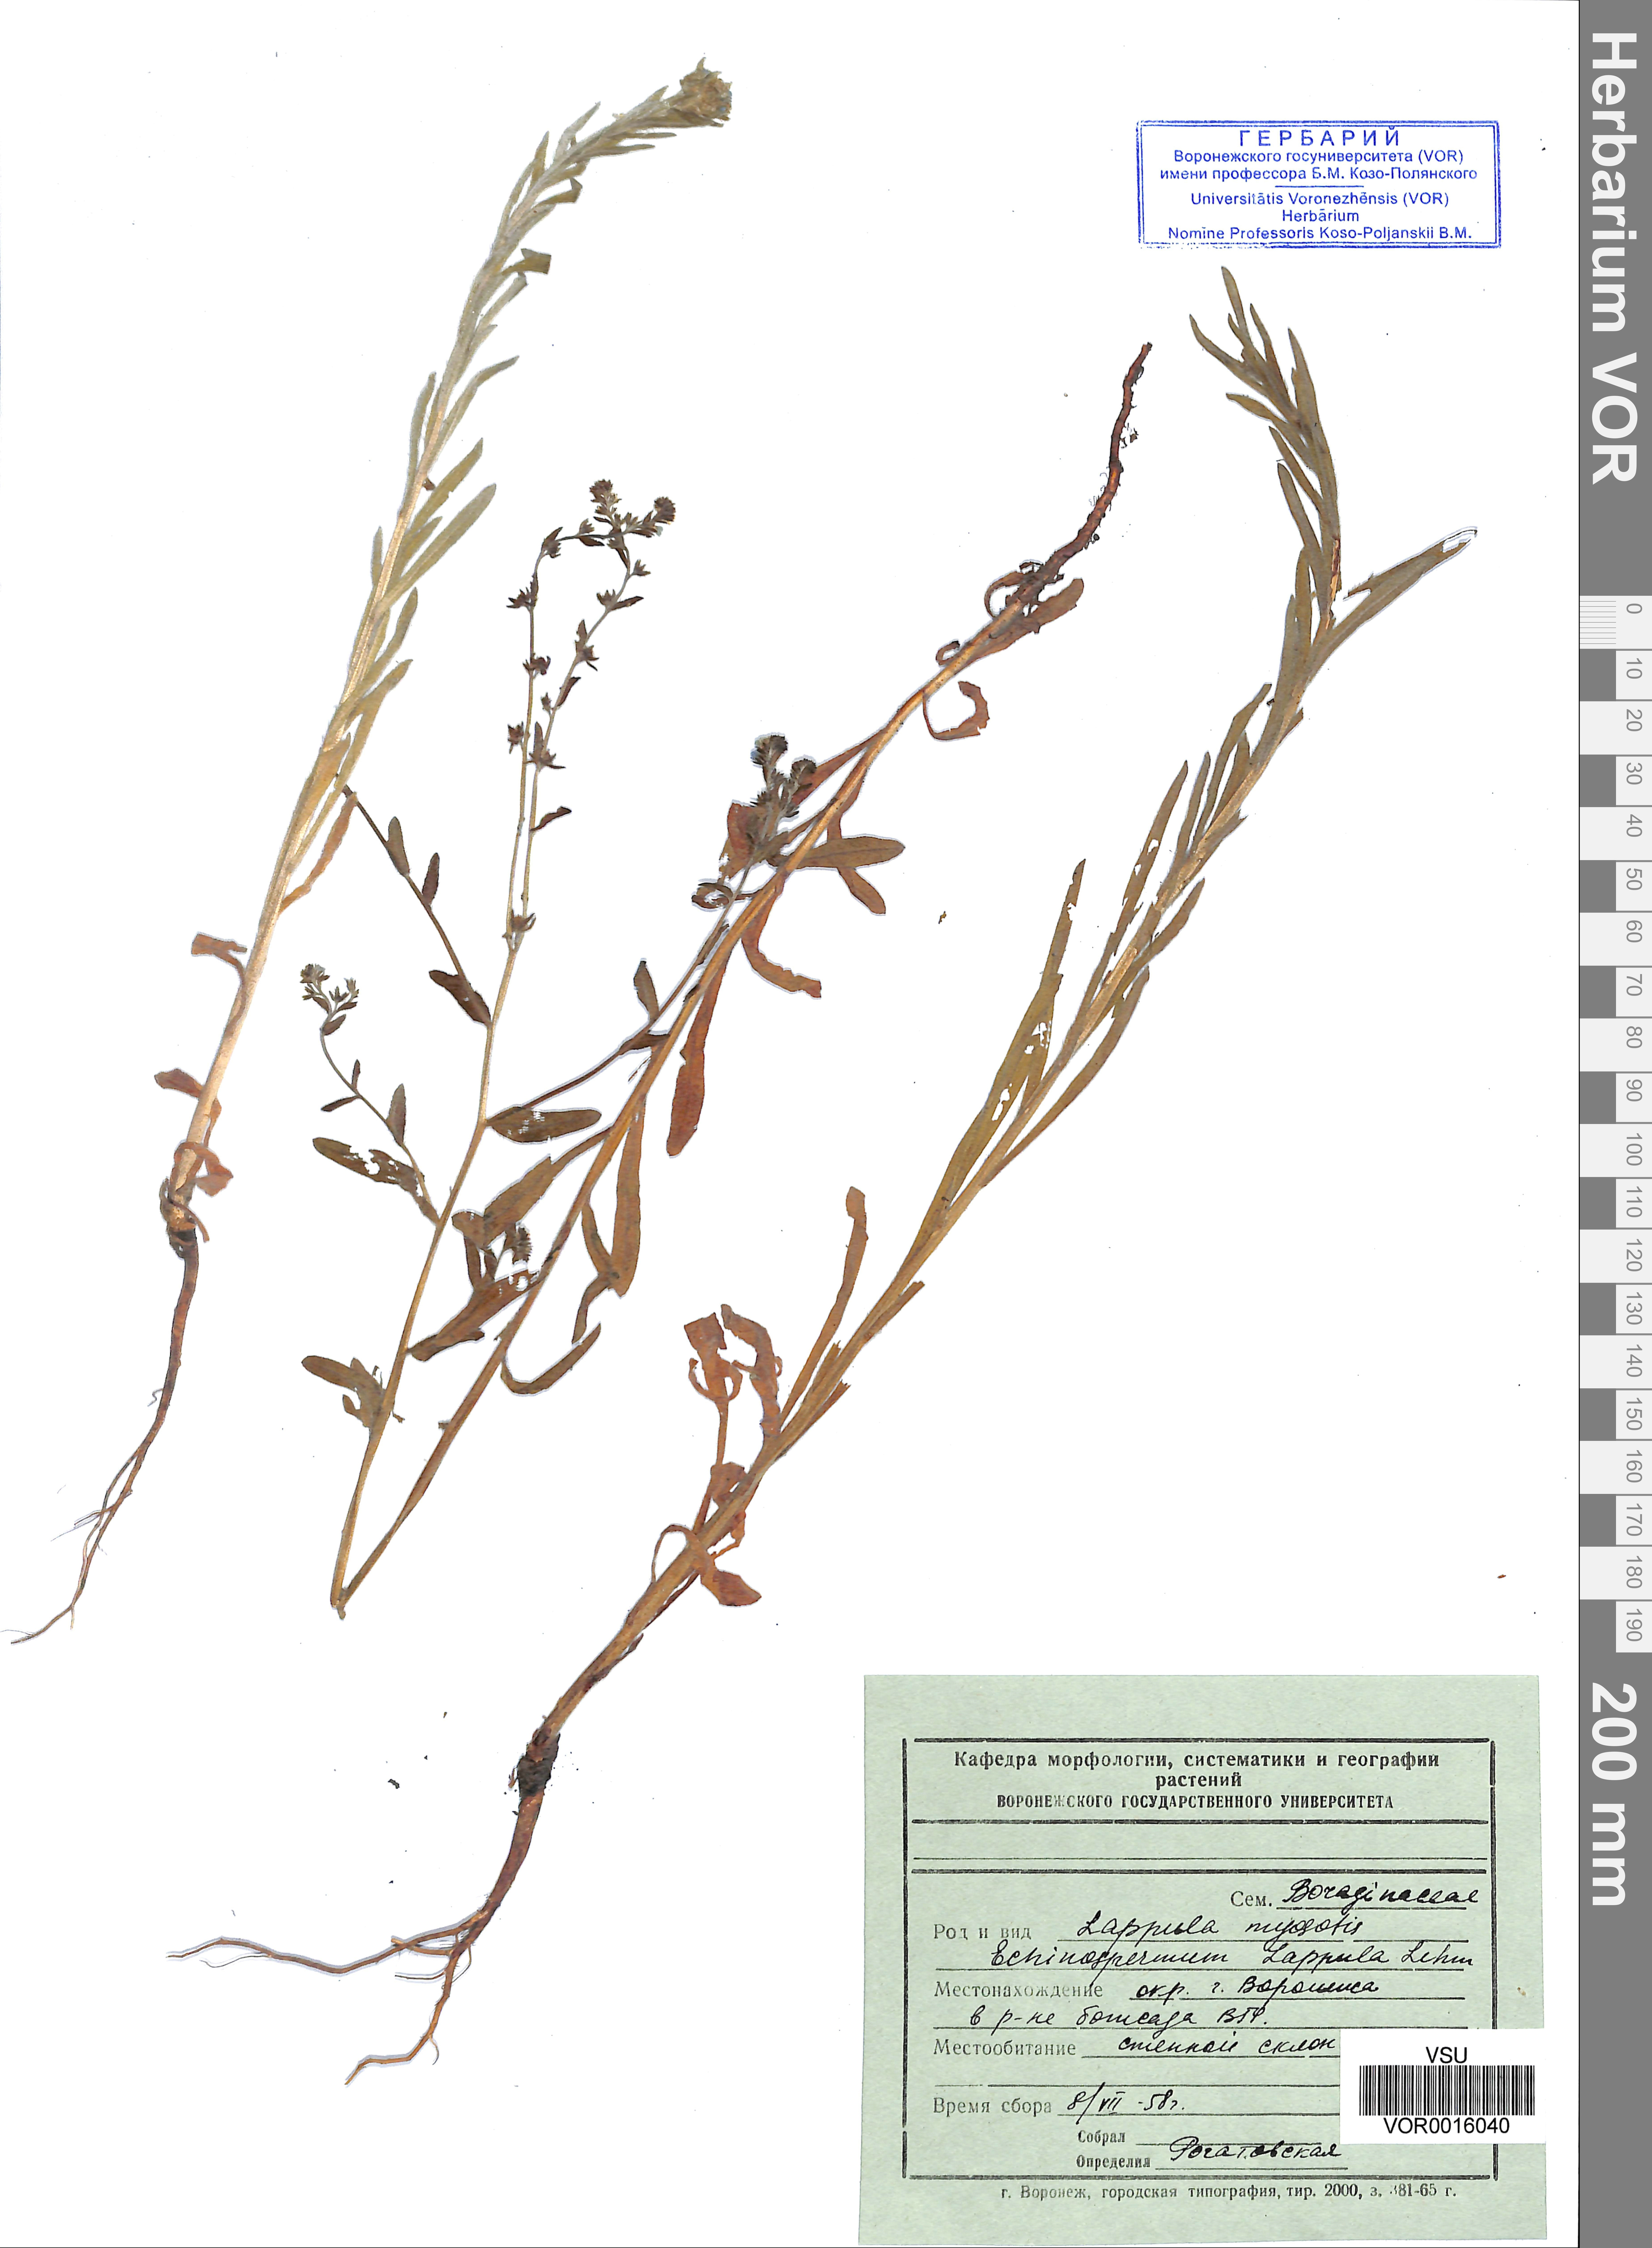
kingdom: Plantae
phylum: Tracheophyta
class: Magnoliopsida
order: Boraginales
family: Boraginaceae
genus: Lappula
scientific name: Lappula squarrosa
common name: European stickseed
